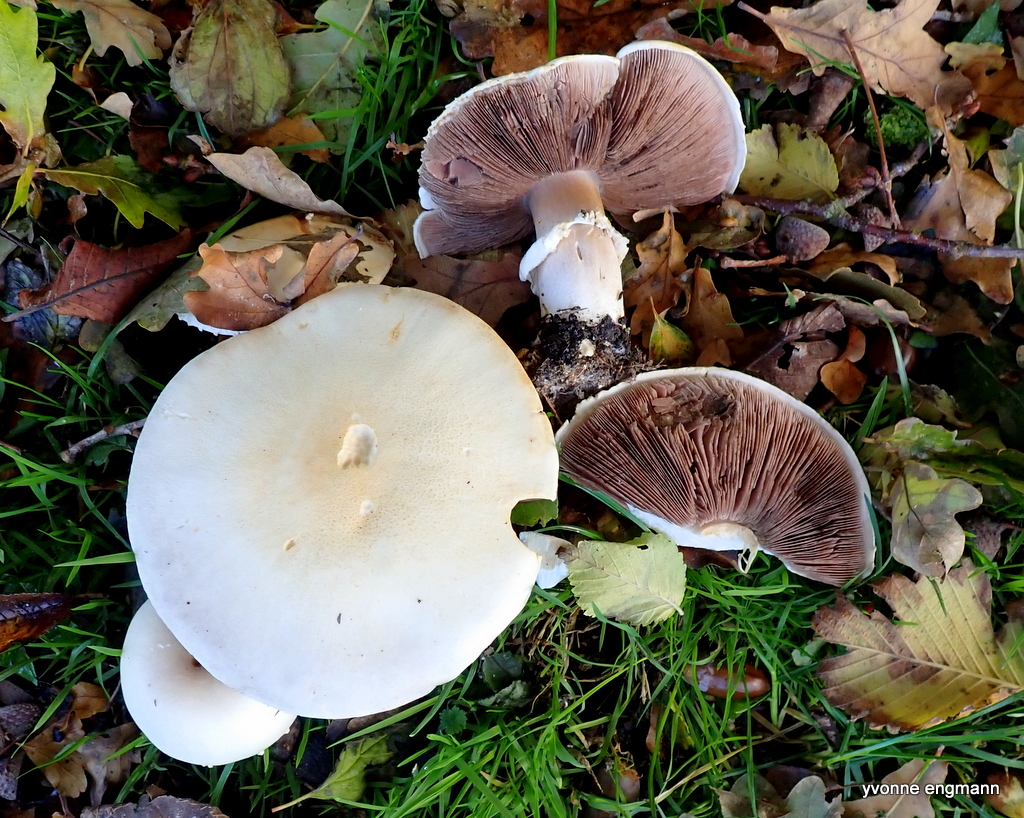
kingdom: Fungi
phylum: Basidiomycota
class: Agaricomycetes
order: Agaricales
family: Agaricaceae
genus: Agaricus
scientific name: Agaricus
